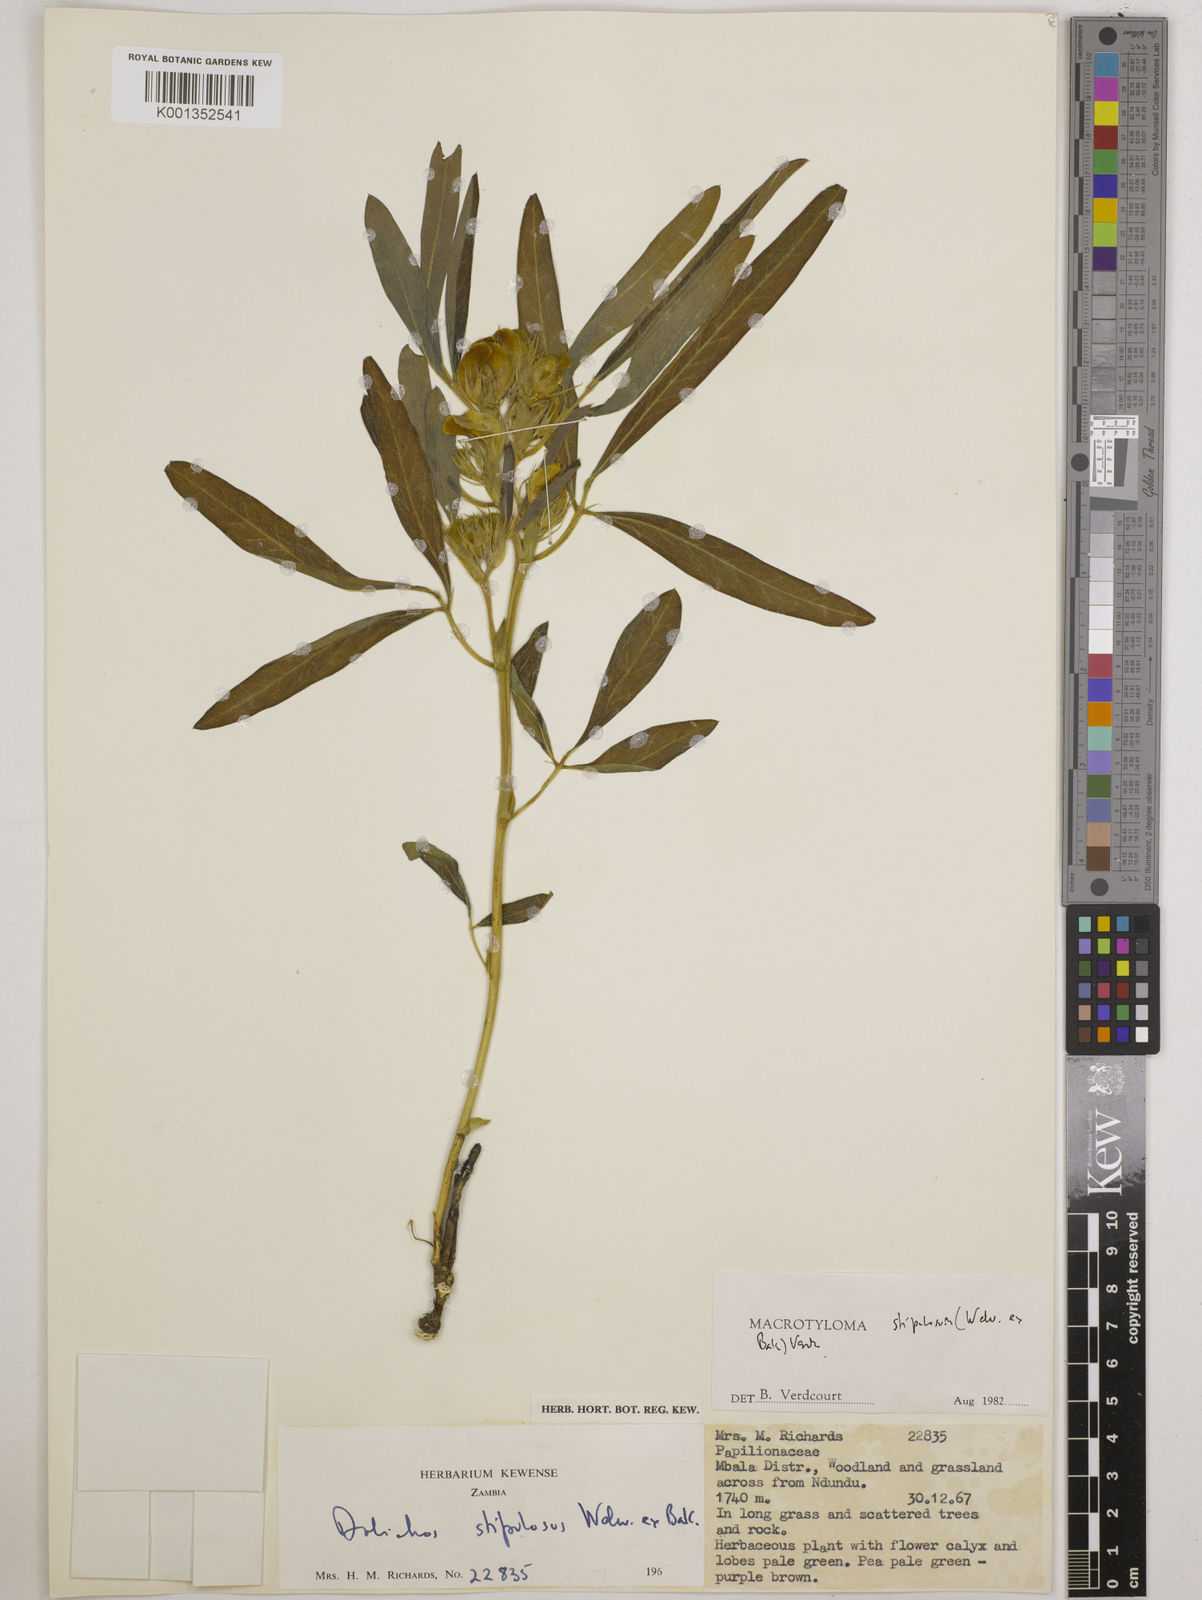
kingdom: Plantae
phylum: Tracheophyta
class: Magnoliopsida
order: Fabales
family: Fabaceae
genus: Macrotyloma
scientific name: Macrotyloma stipulosum
